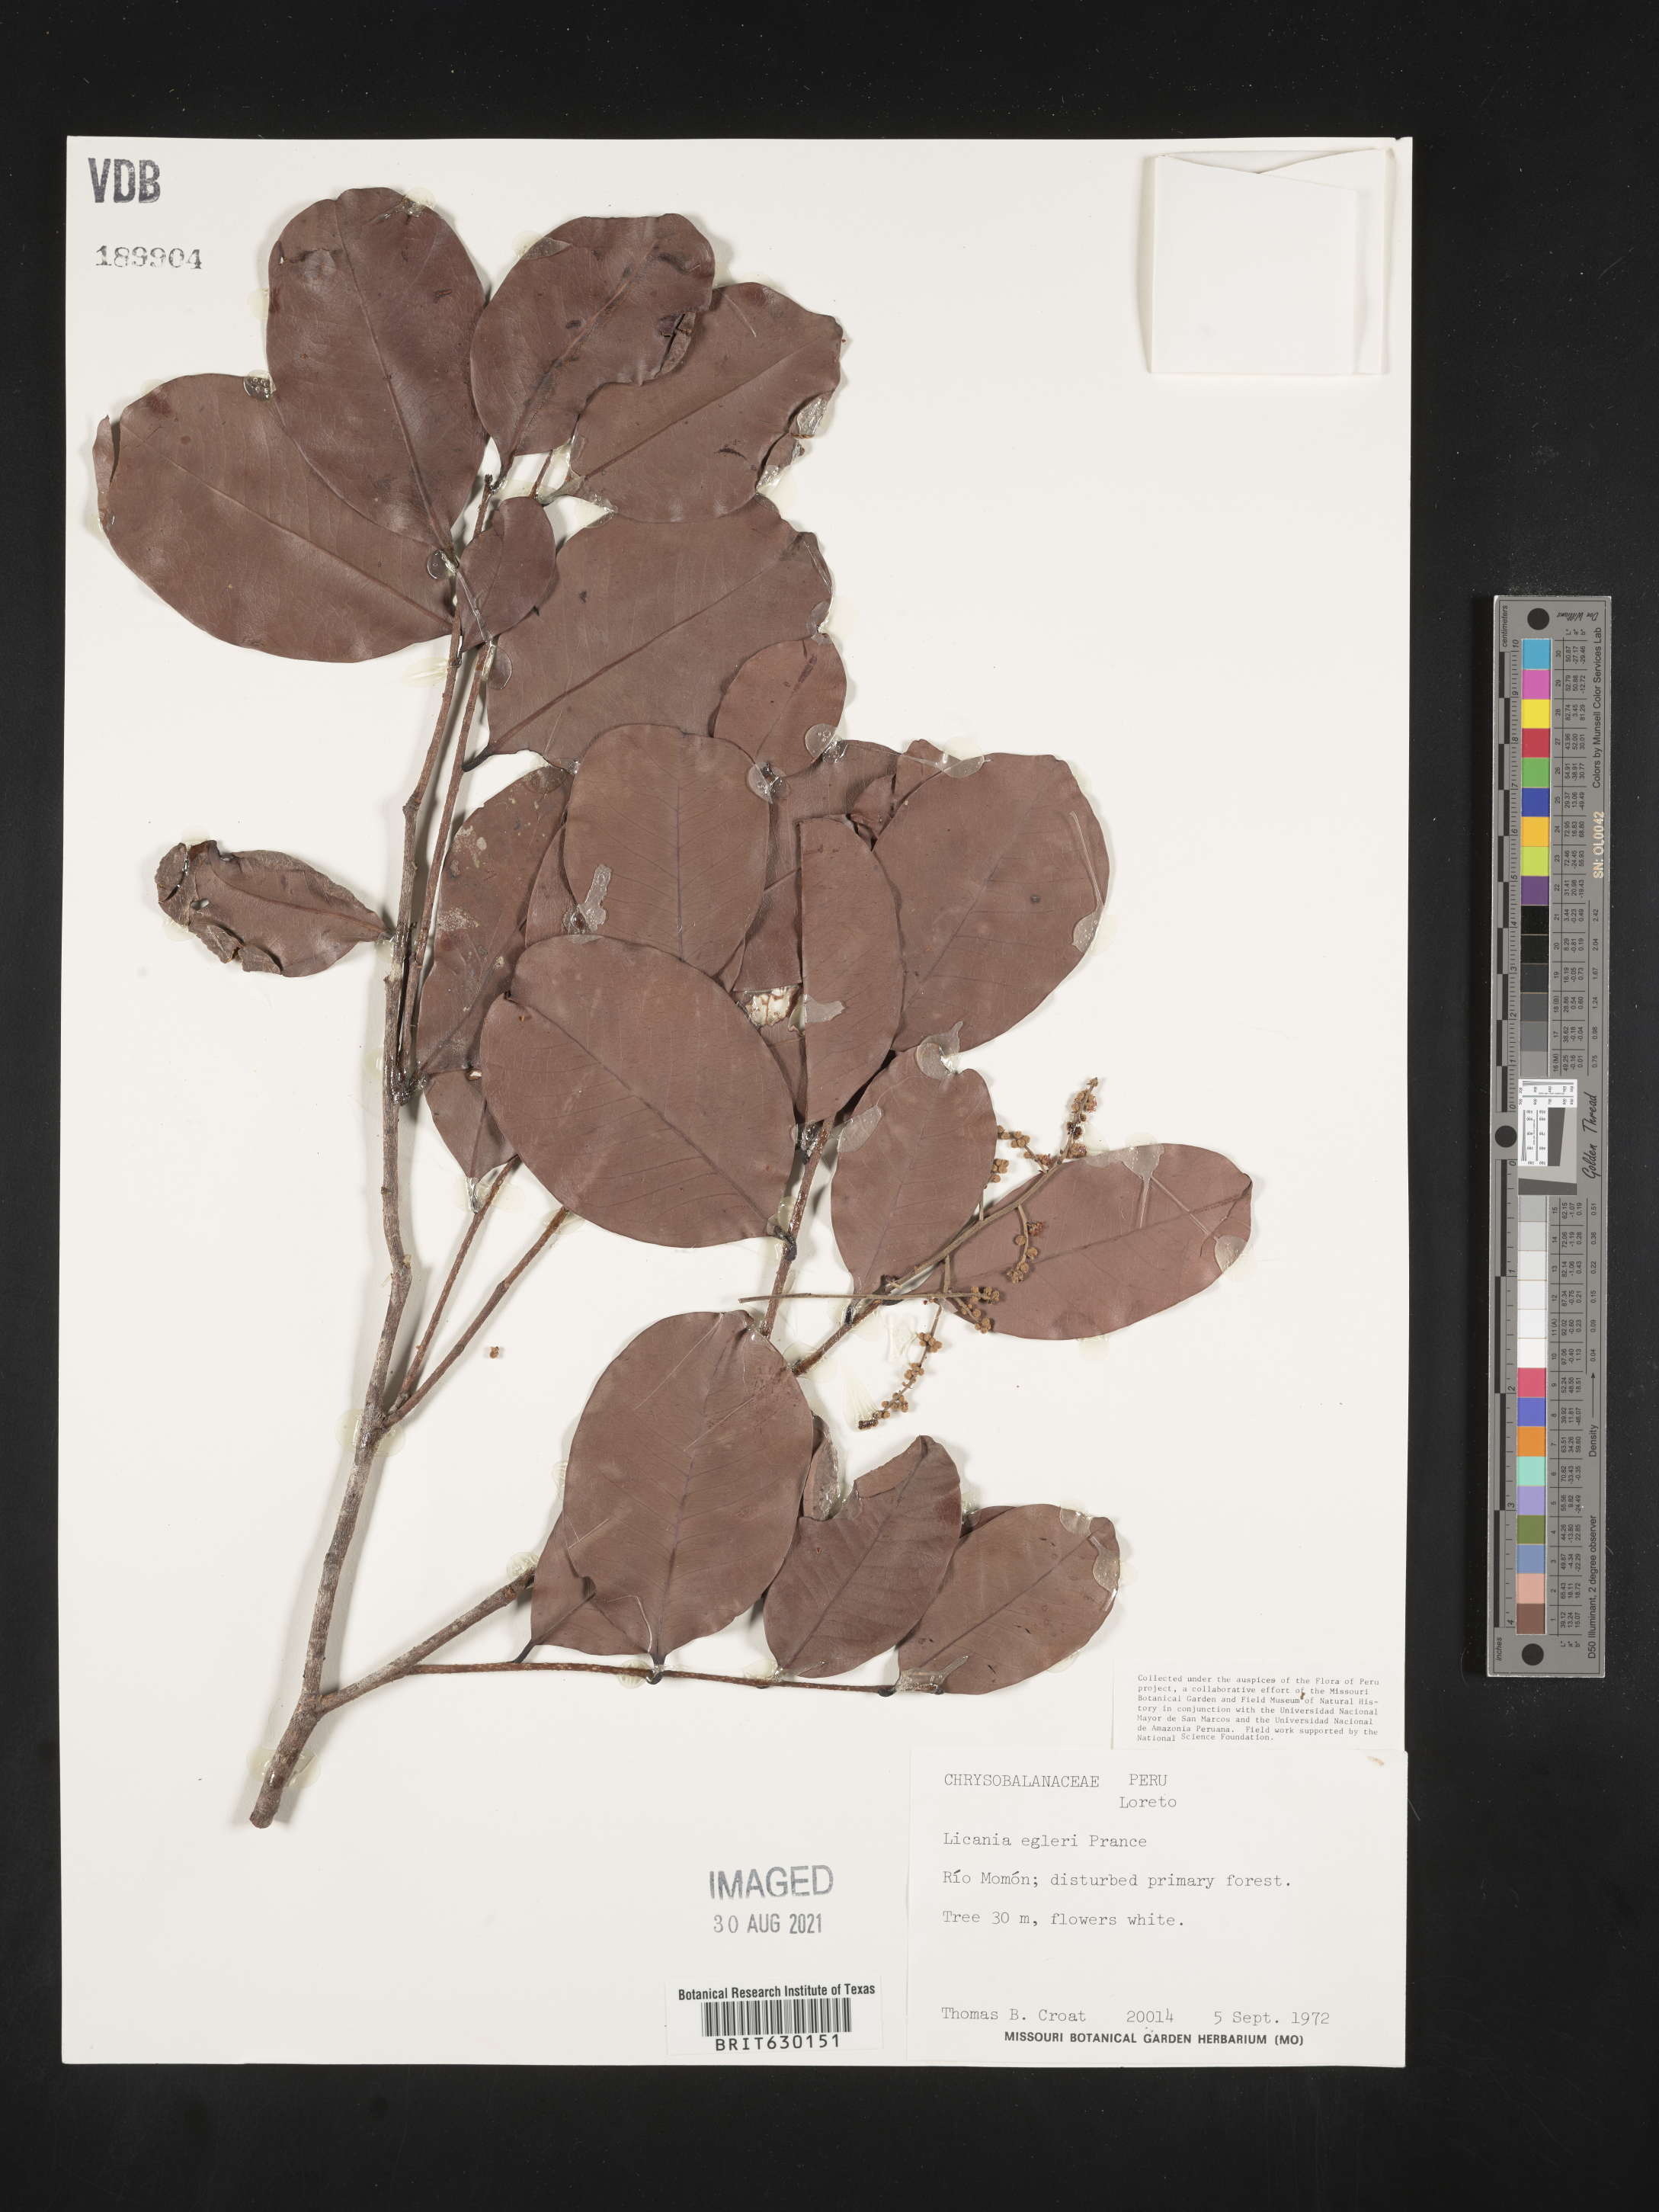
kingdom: Plantae
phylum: Tracheophyta
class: Magnoliopsida
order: Malpighiales
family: Chrysobalanaceae
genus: Moquilea
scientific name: Moquilea egleri
